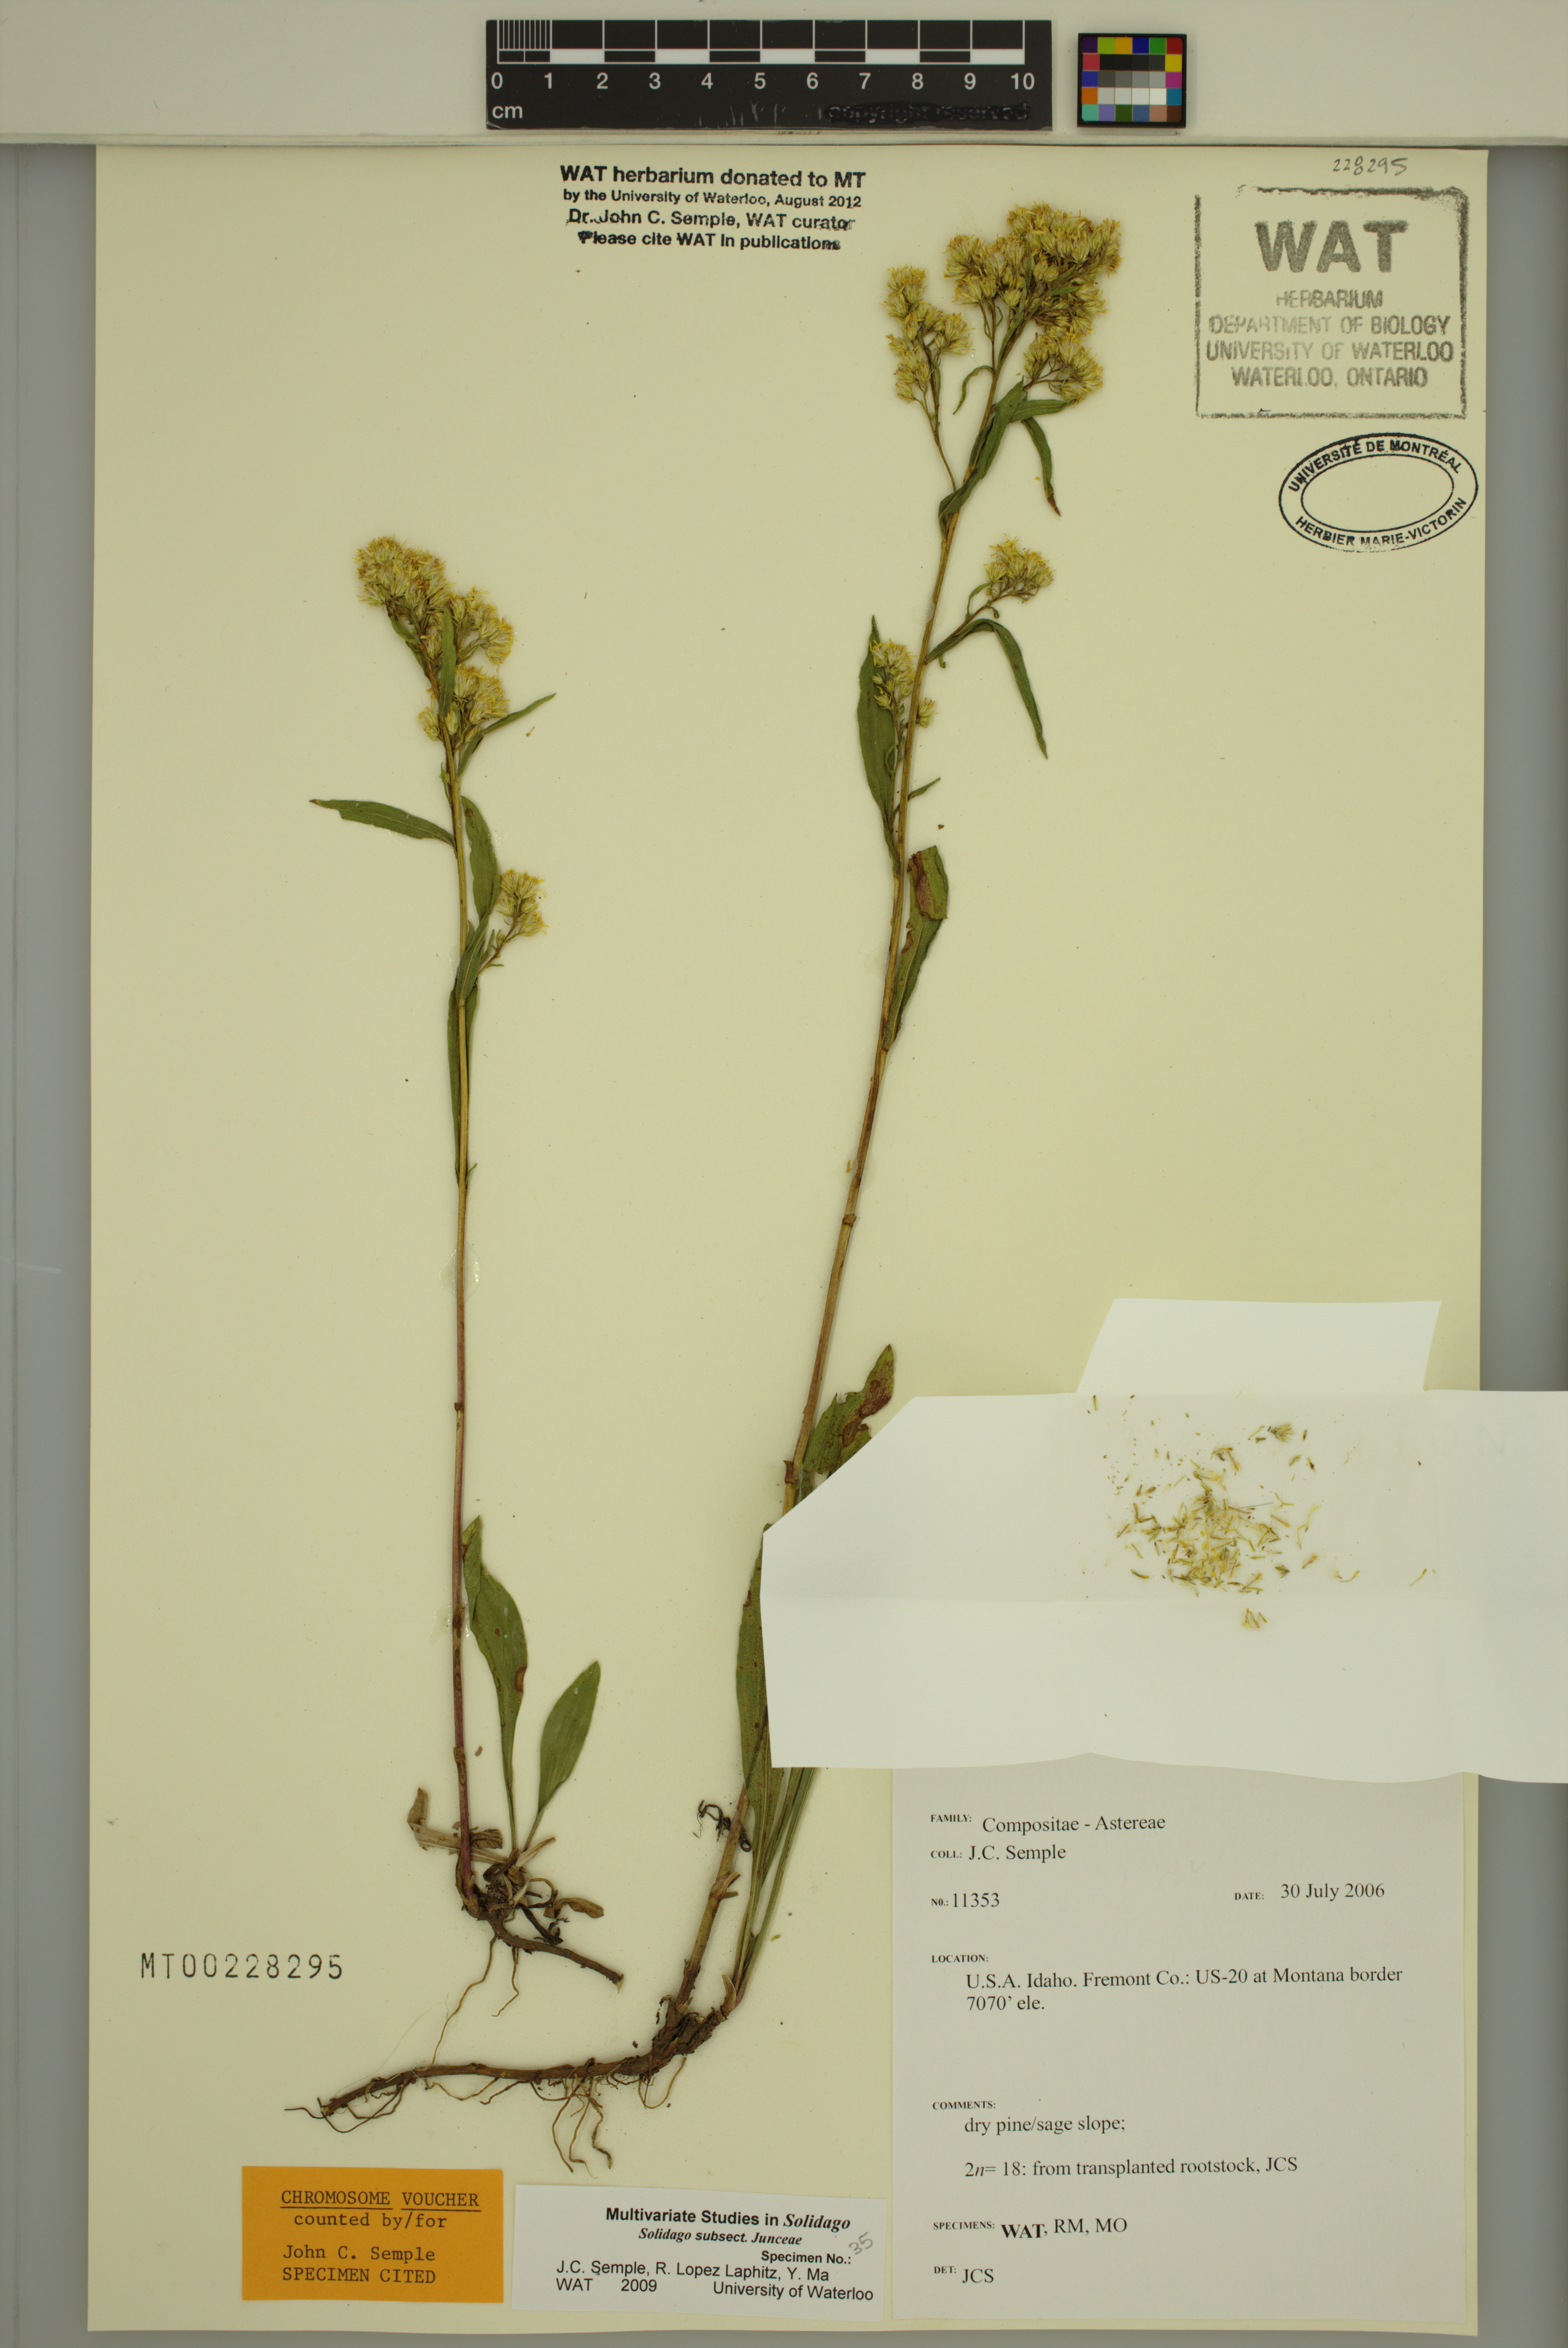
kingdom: Plantae
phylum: Tracheophyta
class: Magnoliopsida
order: Asterales
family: Asteraceae
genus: Solidago
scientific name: Solidago missouriensis
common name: Prairie goldenrod
